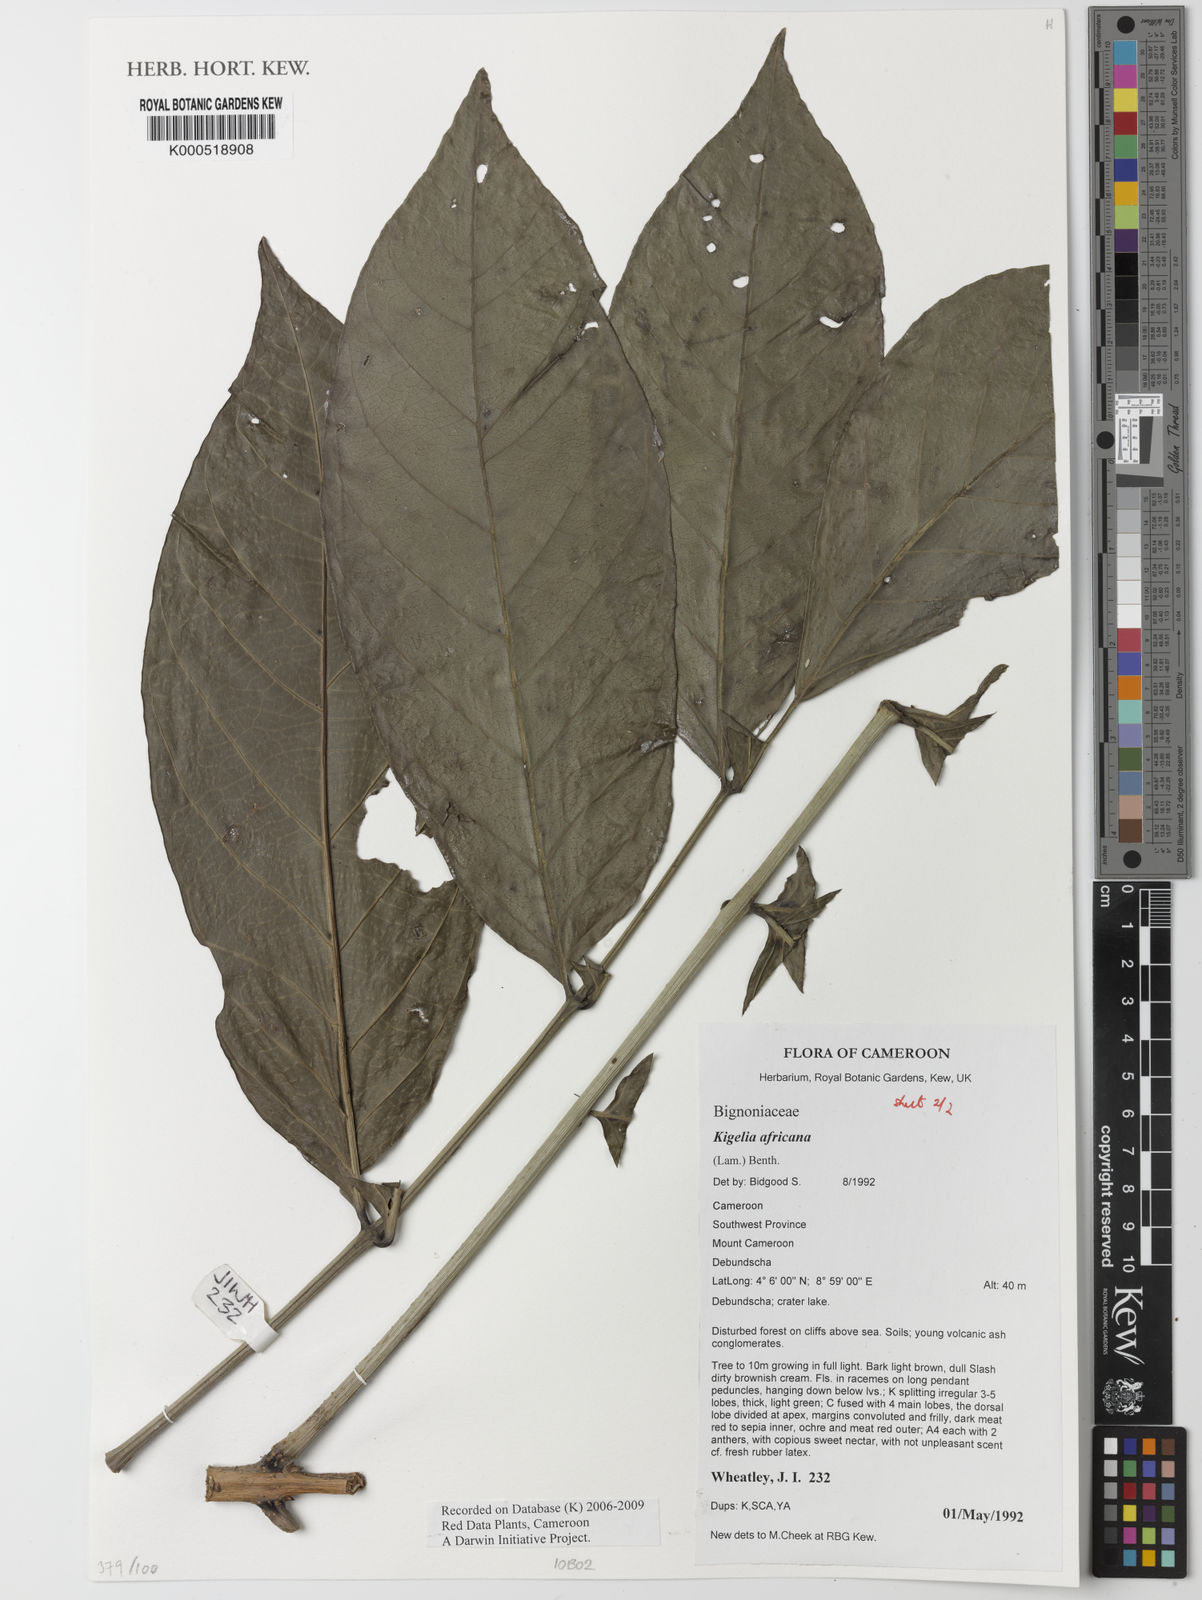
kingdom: Plantae
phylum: Tracheophyta
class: Magnoliopsida
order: Lamiales
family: Bignoniaceae
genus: Kigelia
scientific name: Kigelia africana
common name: Sausage tree
